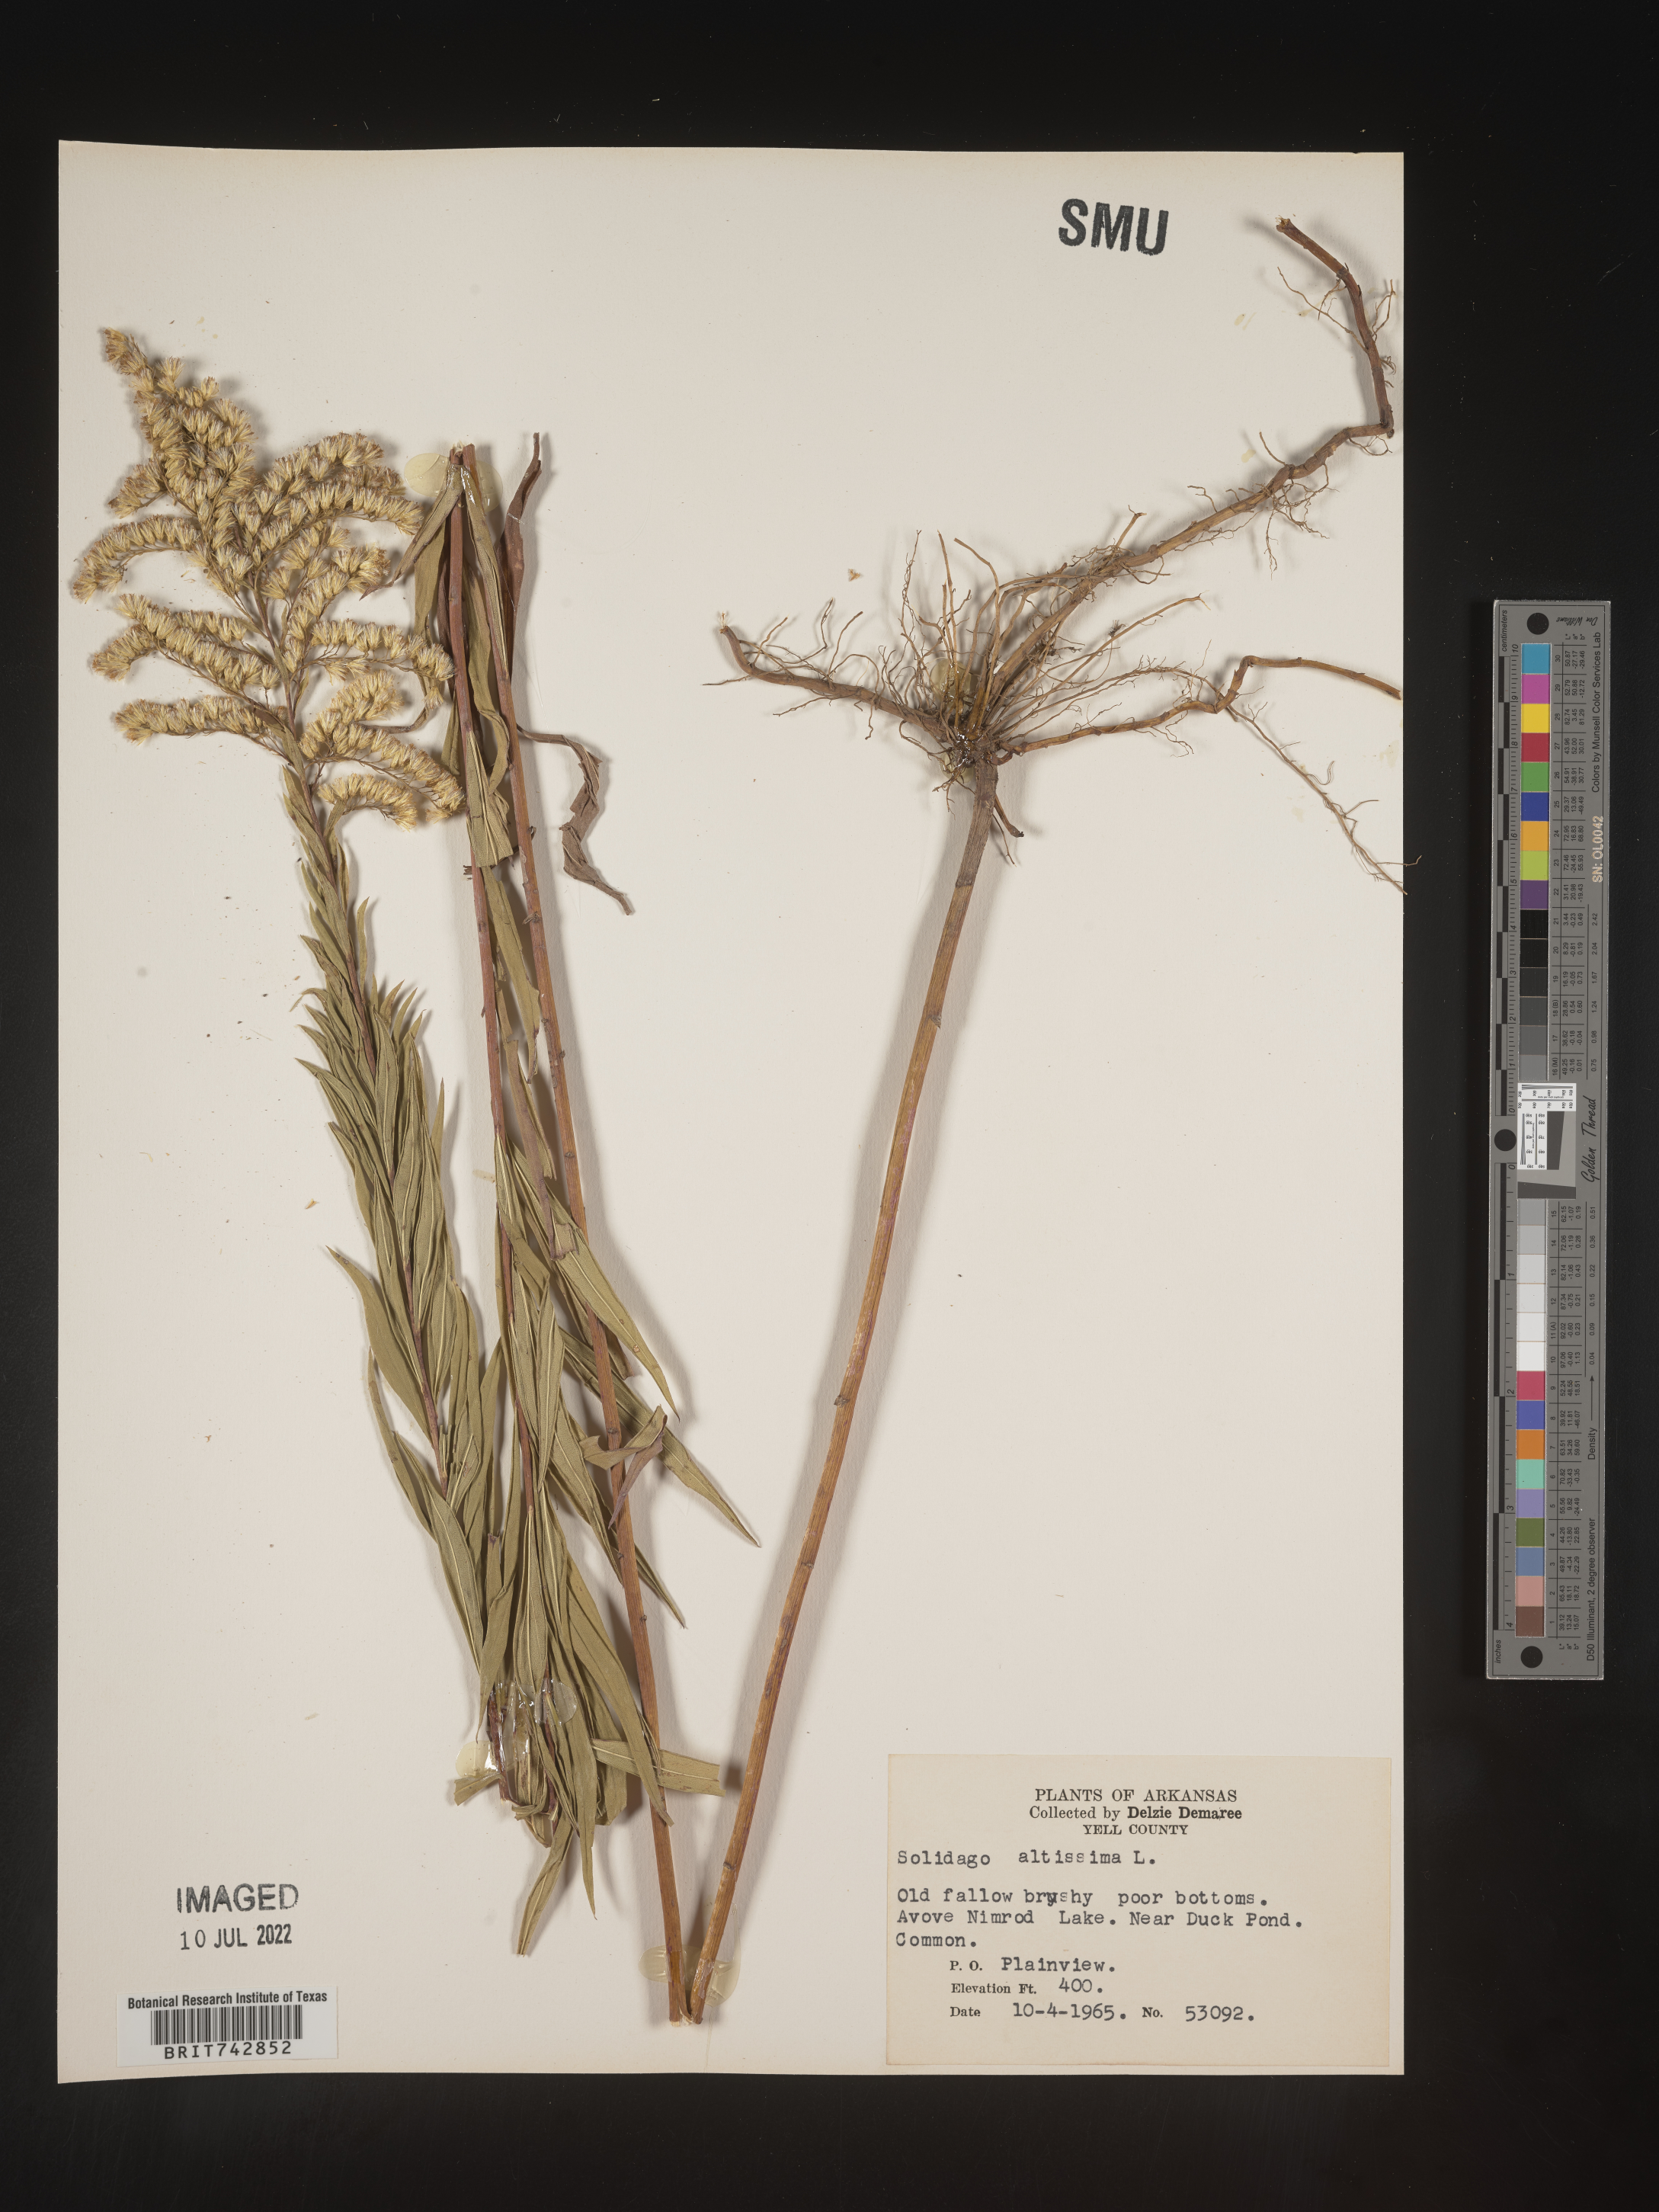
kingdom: Plantae
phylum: Tracheophyta
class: Magnoliopsida
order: Asterales
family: Asteraceae
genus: Solidago
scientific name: Solidago altissima
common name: Late goldenrod
